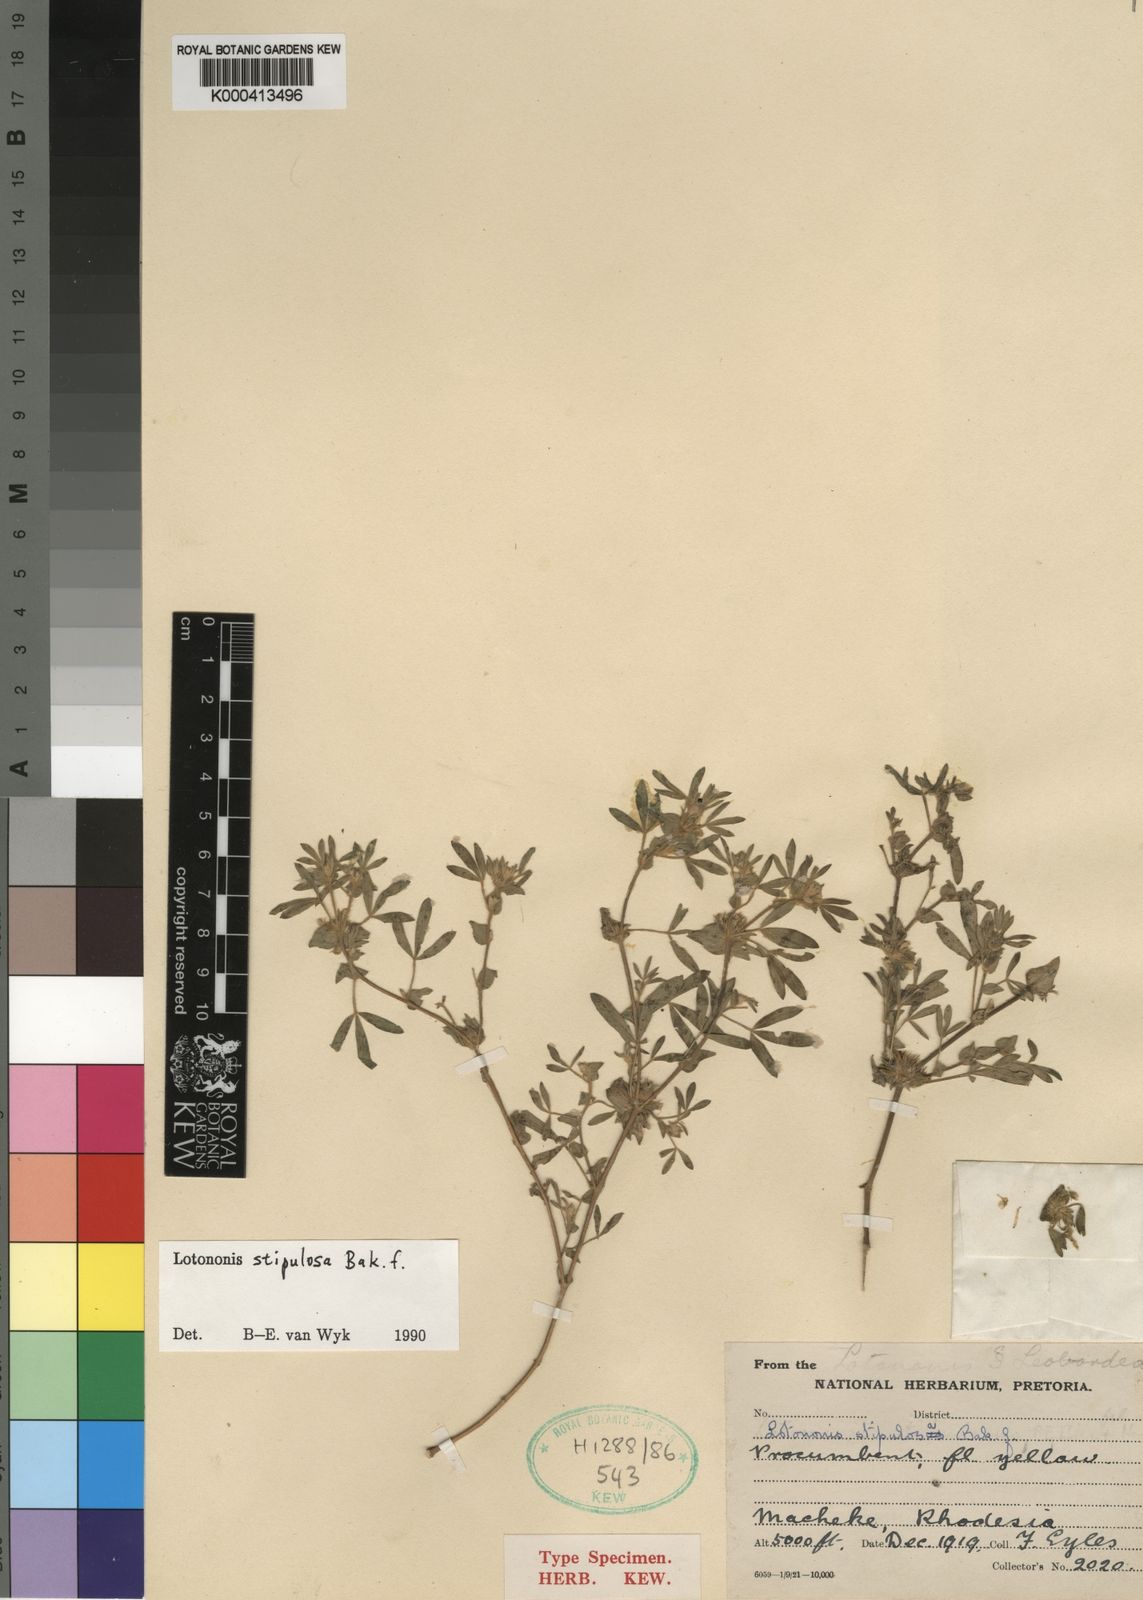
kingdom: Plantae
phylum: Tracheophyta
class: Magnoliopsida
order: Fabales
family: Fabaceae
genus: Leobordea
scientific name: Leobordea stipulosa
